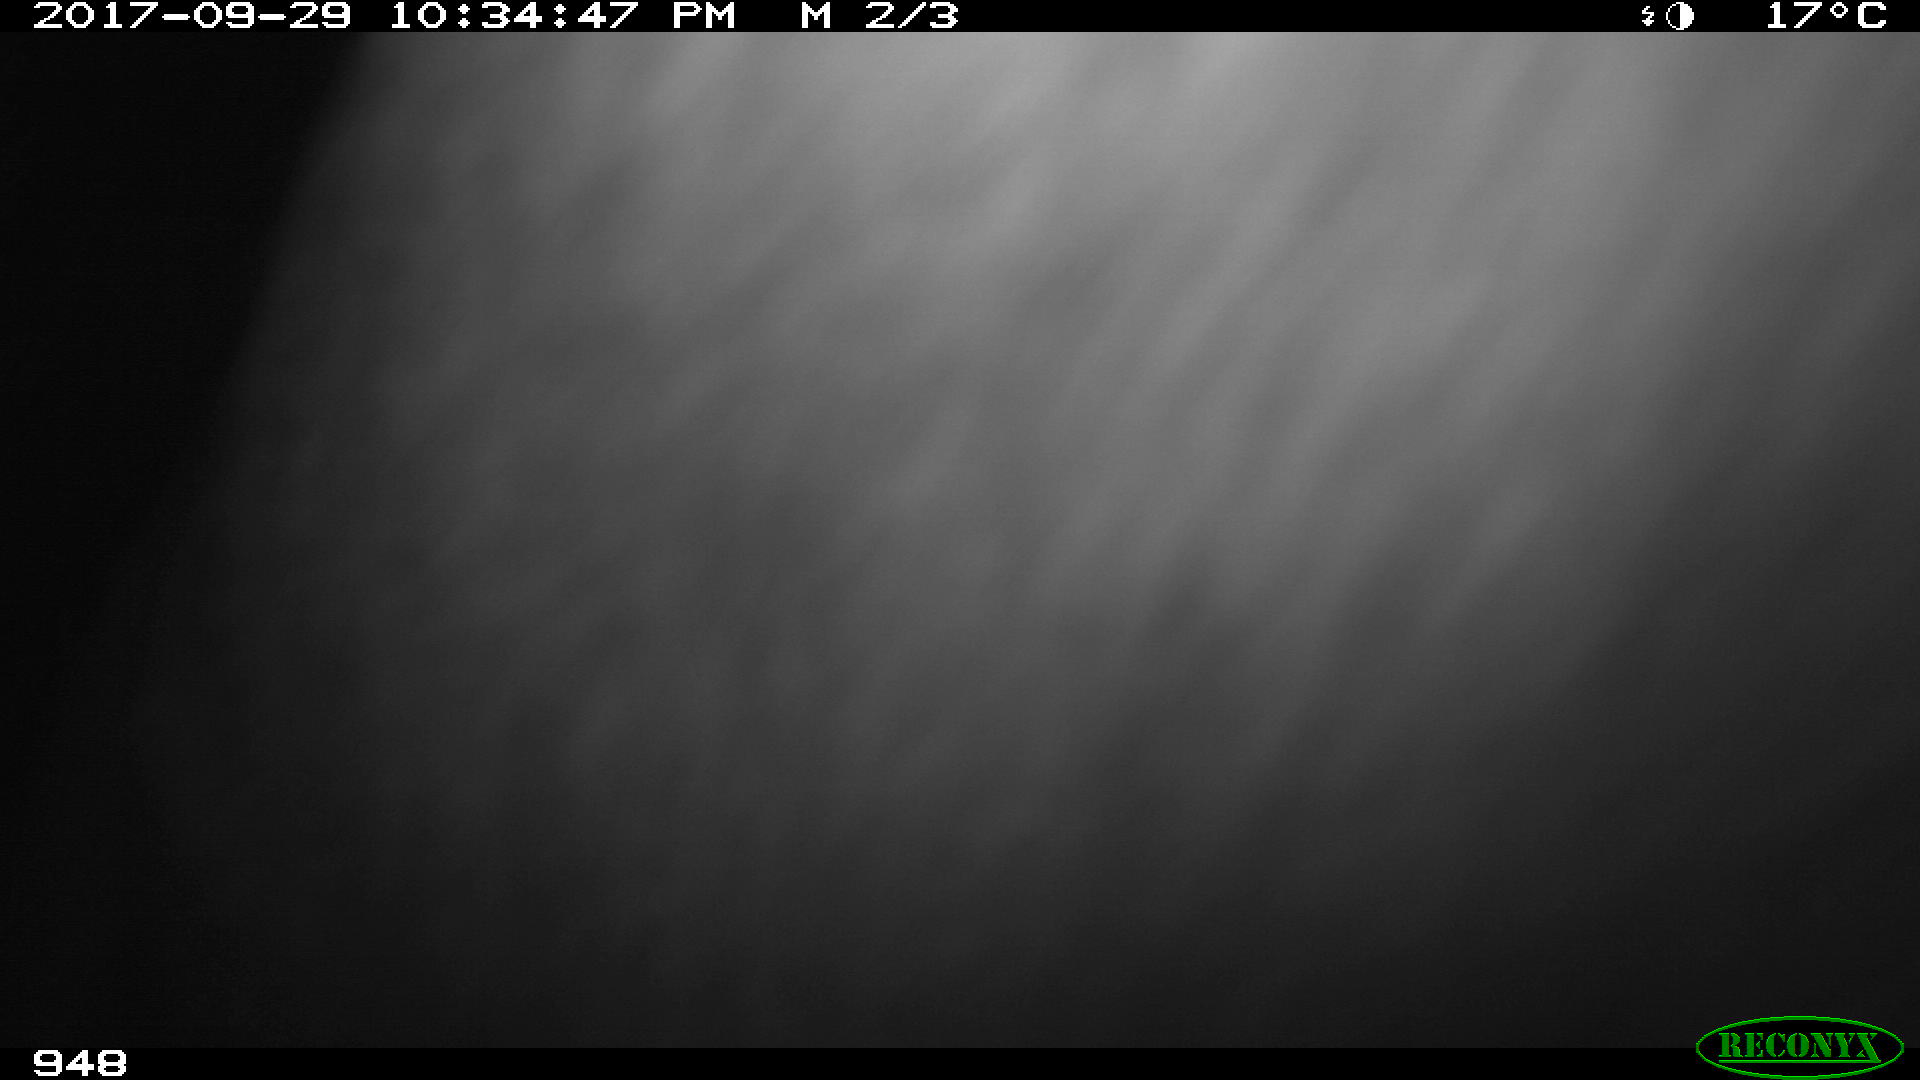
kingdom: Animalia
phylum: Chordata
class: Mammalia
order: Perissodactyla
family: Equidae
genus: Equus
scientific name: Equus caballus
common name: Horse
